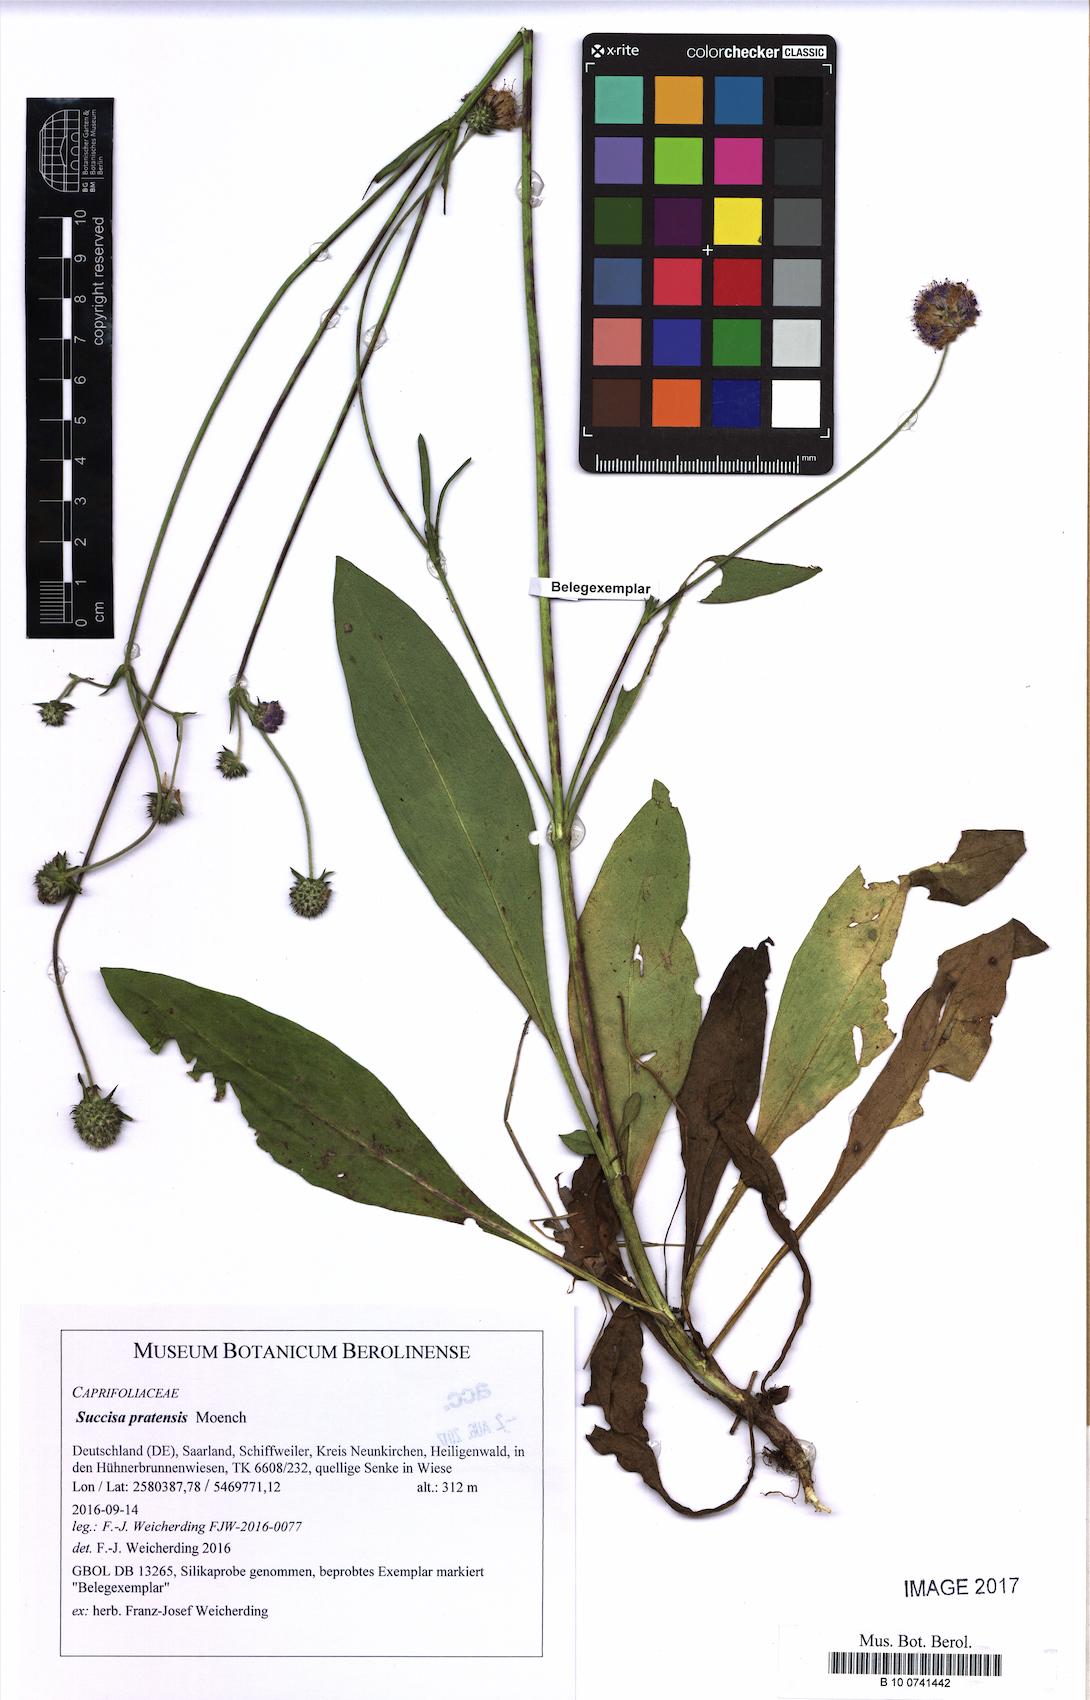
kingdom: Plantae
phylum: Tracheophyta
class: Magnoliopsida
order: Dipsacales
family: Caprifoliaceae
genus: Succisa
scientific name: Succisa pratensis
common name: Devil's-bit
